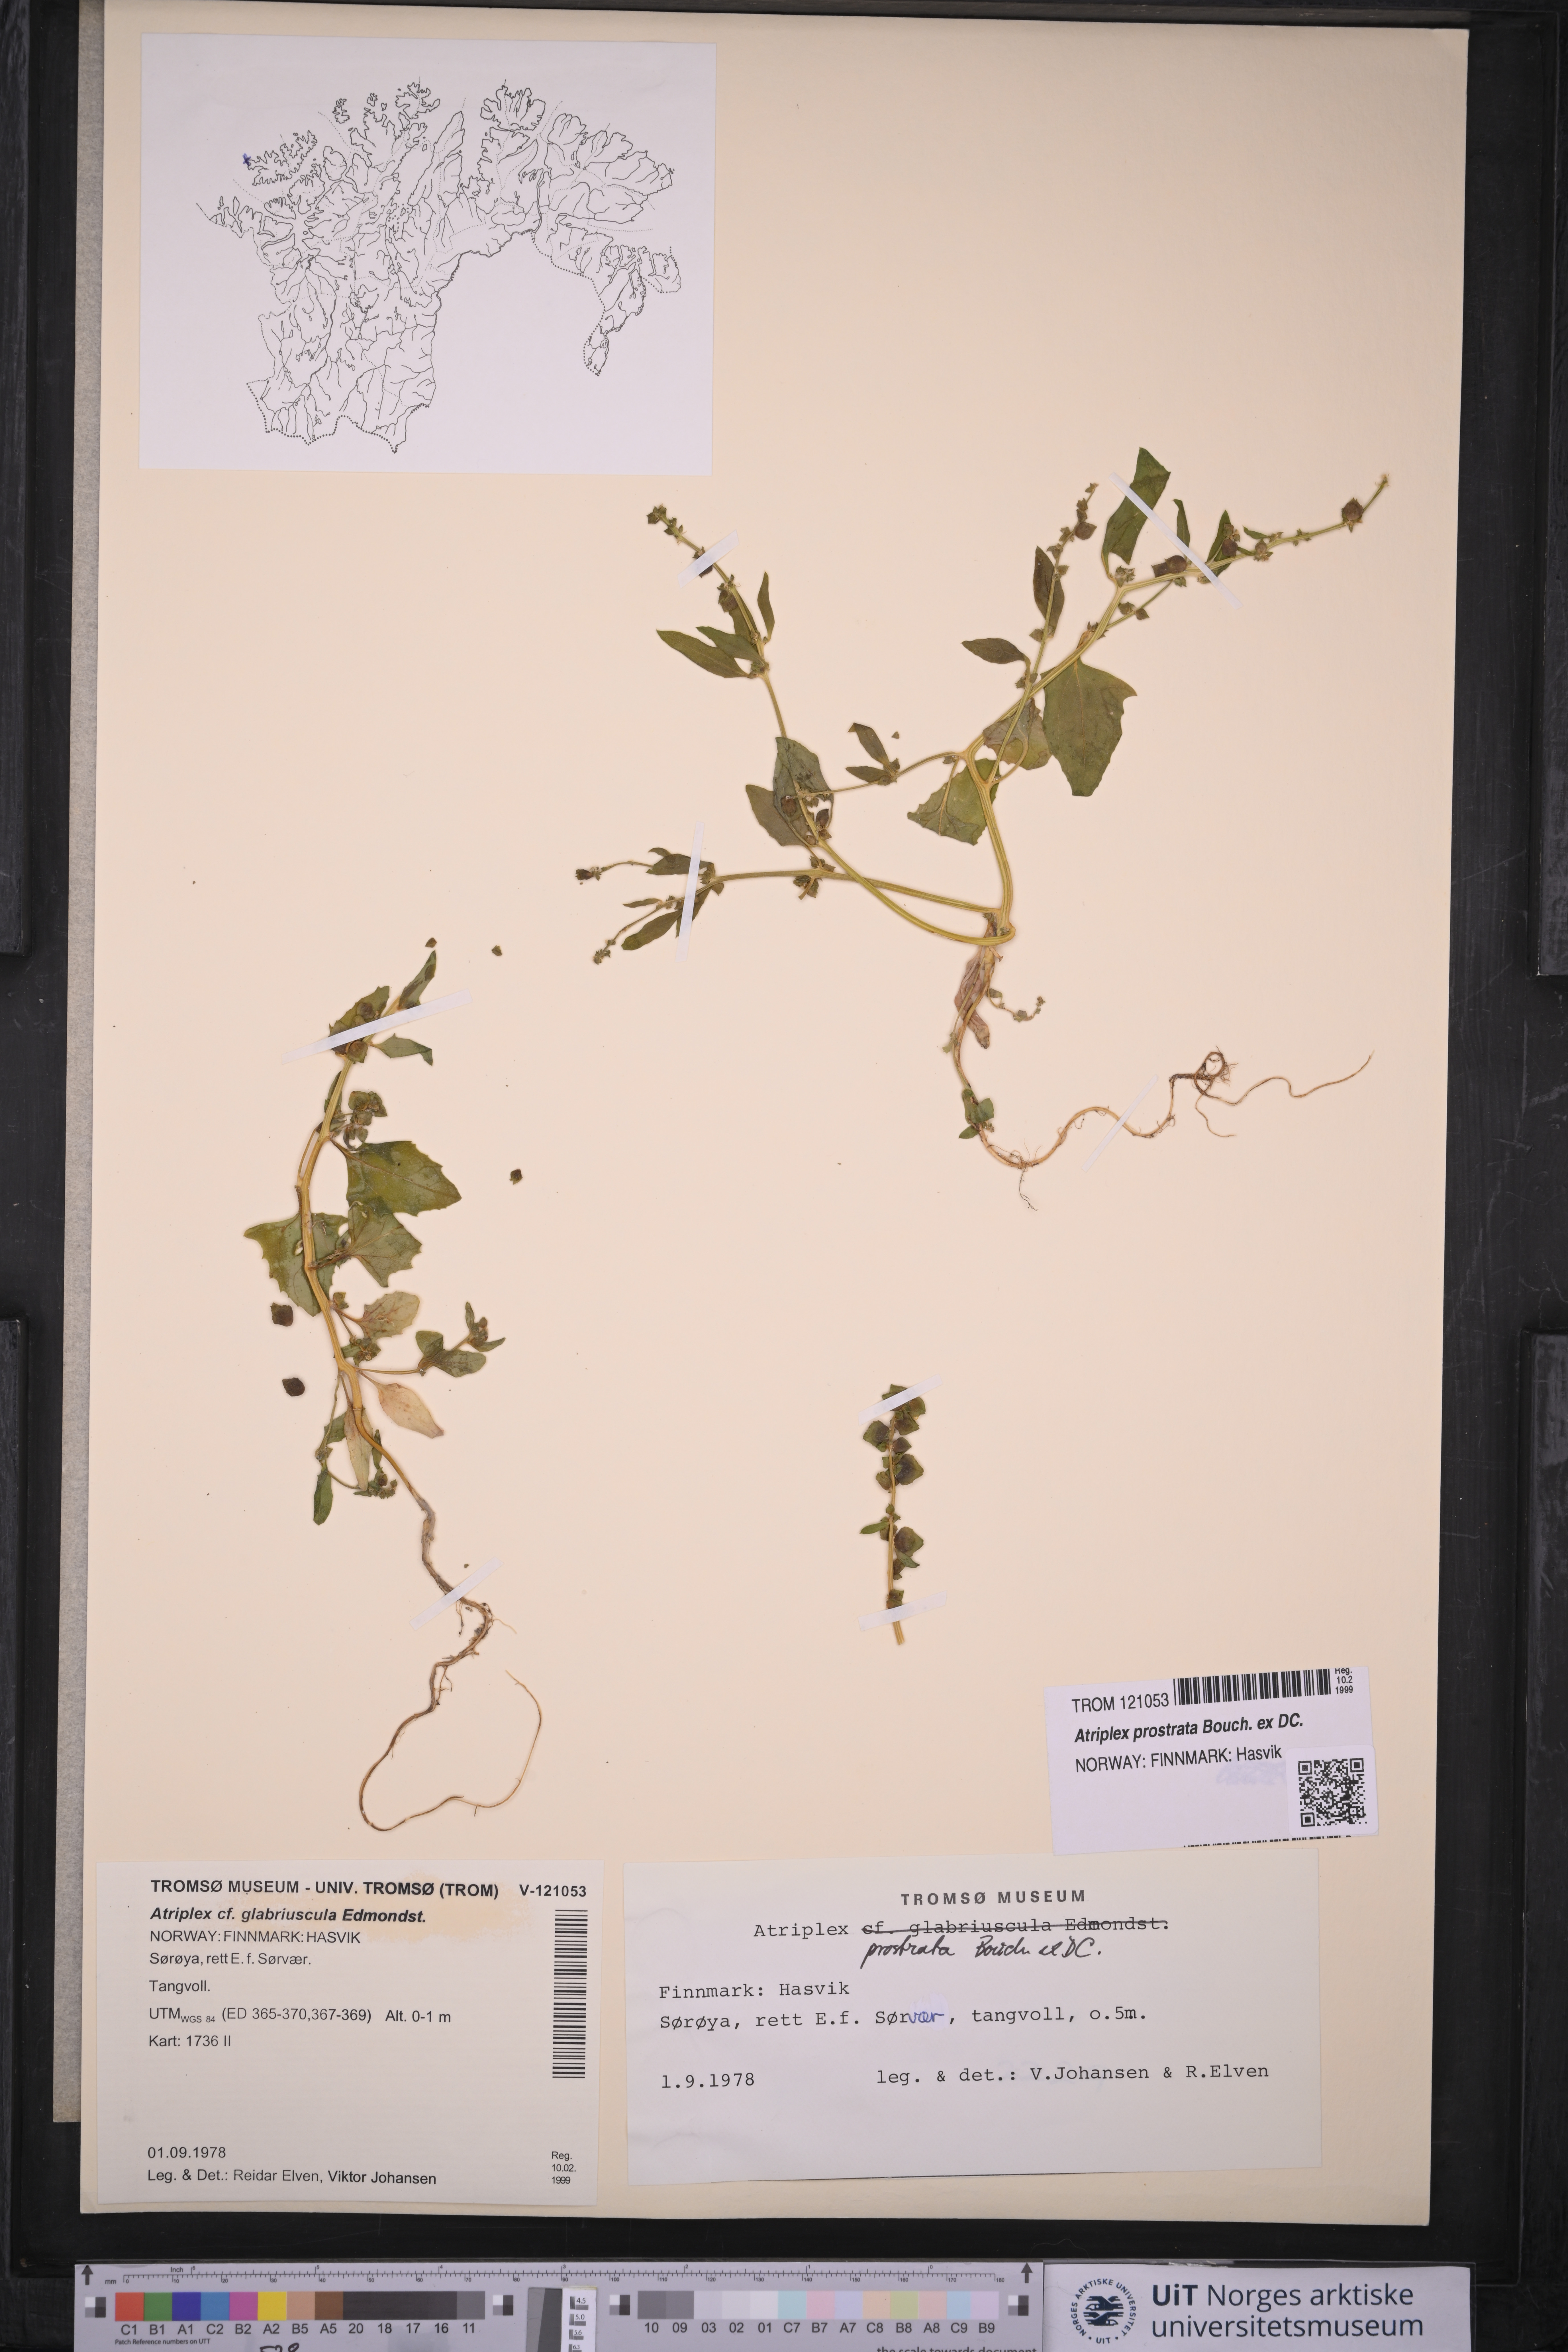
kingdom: Plantae
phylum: Tracheophyta
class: Magnoliopsida
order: Caryophyllales
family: Amaranthaceae
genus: Atriplex
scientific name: Atriplex prostrata
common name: Spear-leaved orache
